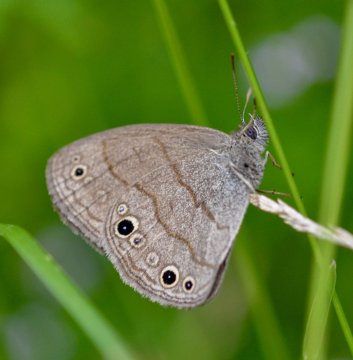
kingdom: Animalia
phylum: Arthropoda
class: Insecta
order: Lepidoptera
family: Nymphalidae
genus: Hermeuptychia
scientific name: Hermeuptychia hermes
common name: Carolina Satyr
